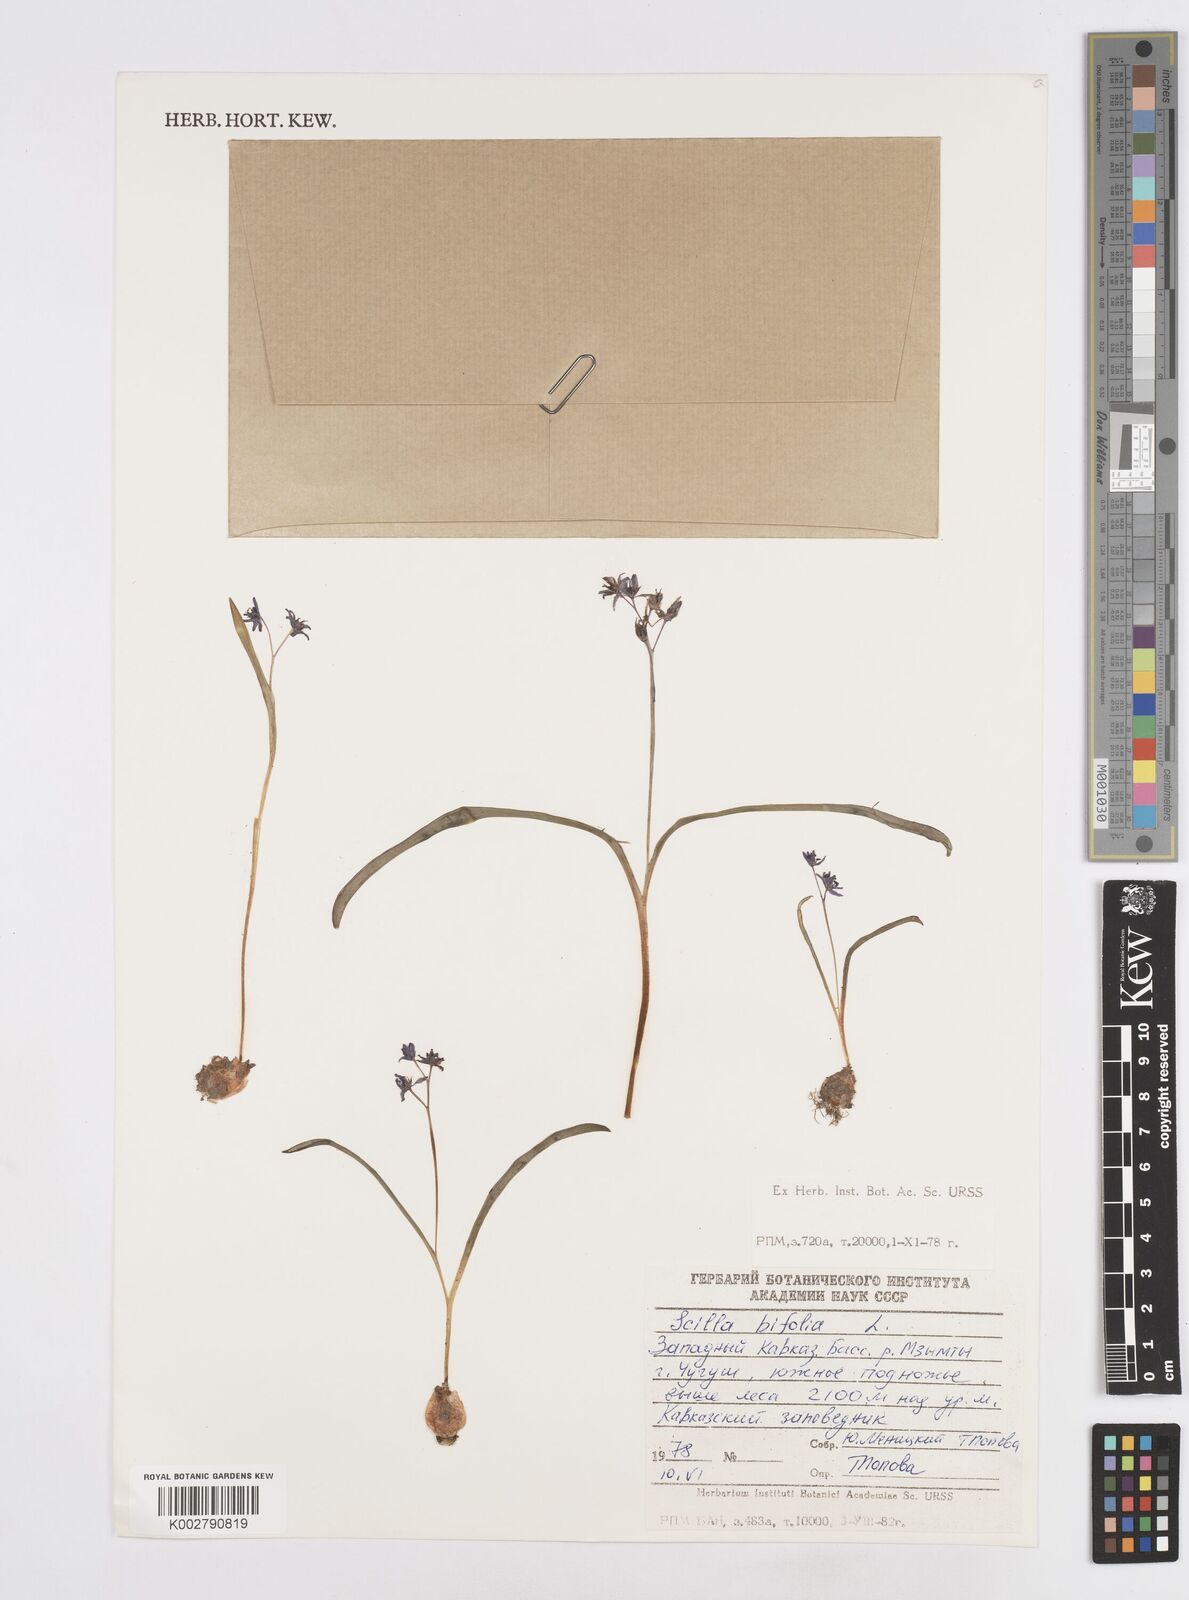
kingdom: Plantae
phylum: Tracheophyta
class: Liliopsida
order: Asparagales
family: Asparagaceae
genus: Scilla
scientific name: Scilla bifolia
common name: Alpine squill
